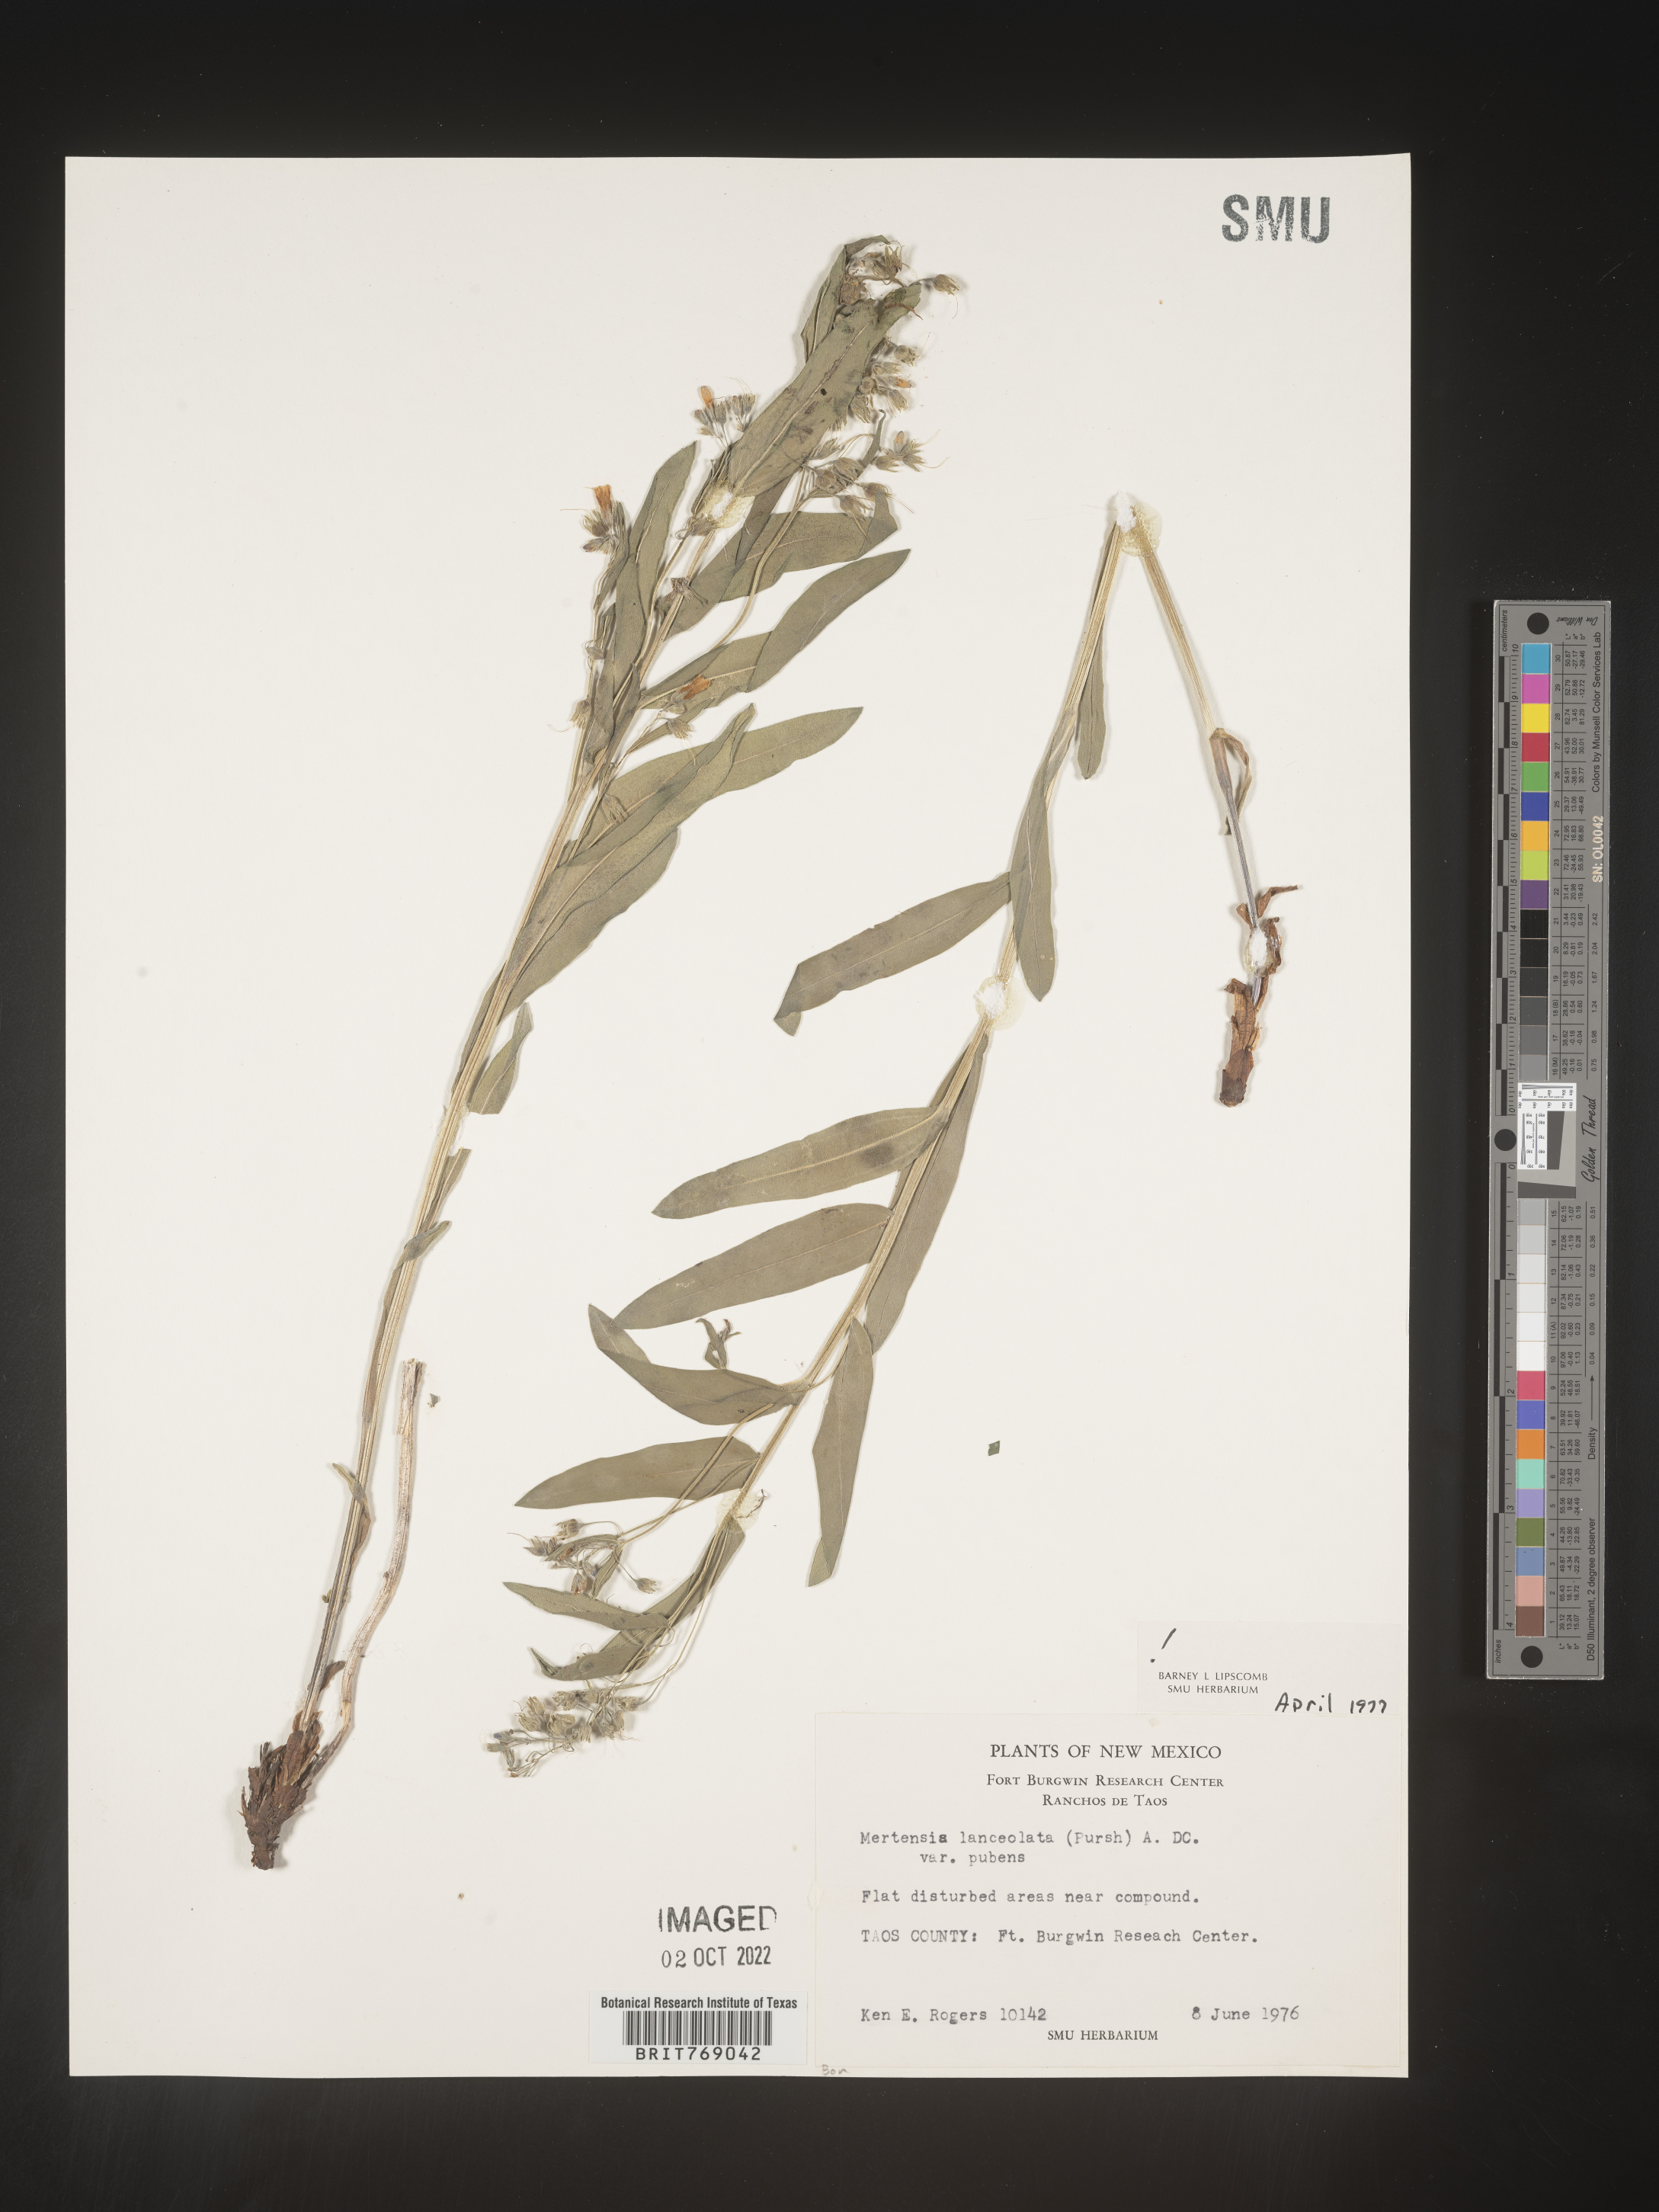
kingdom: Plantae
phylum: Tracheophyta
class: Magnoliopsida
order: Boraginales
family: Boraginaceae
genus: Mertensia
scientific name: Mertensia
